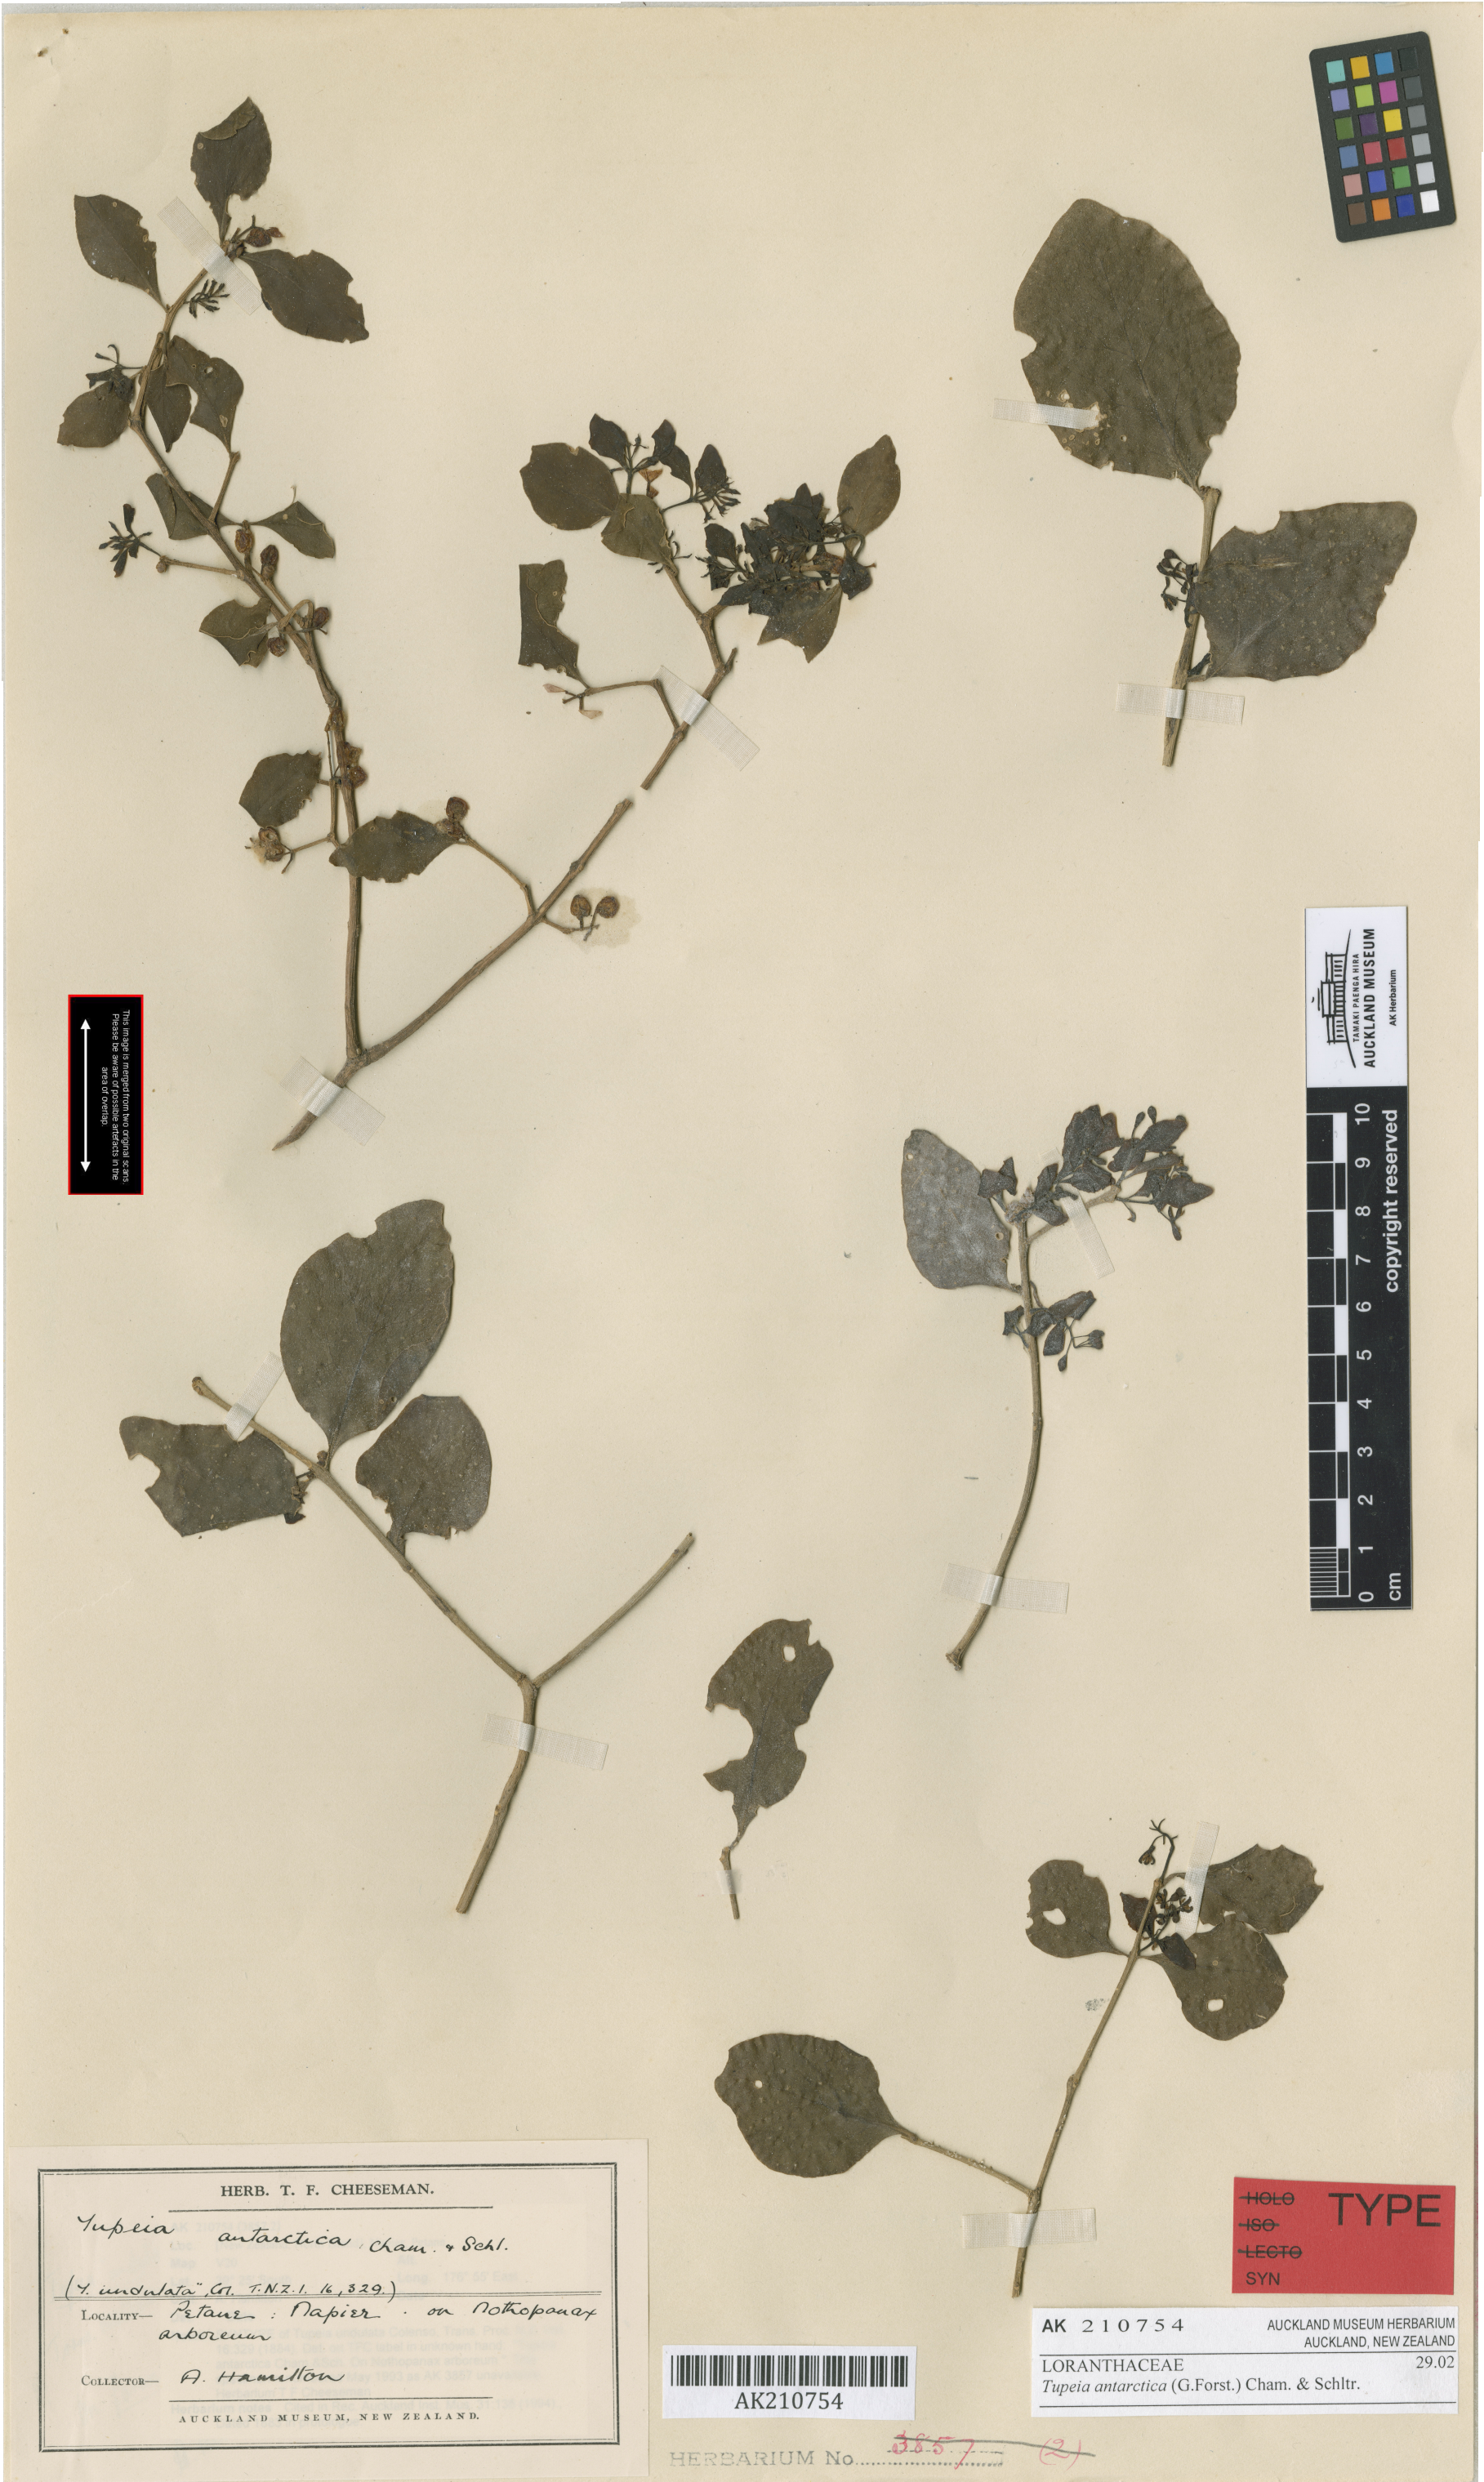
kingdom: Plantae
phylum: Tracheophyta
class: Magnoliopsida
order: Santalales
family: Loranthaceae
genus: Tupeia
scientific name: Tupeia antarctica
